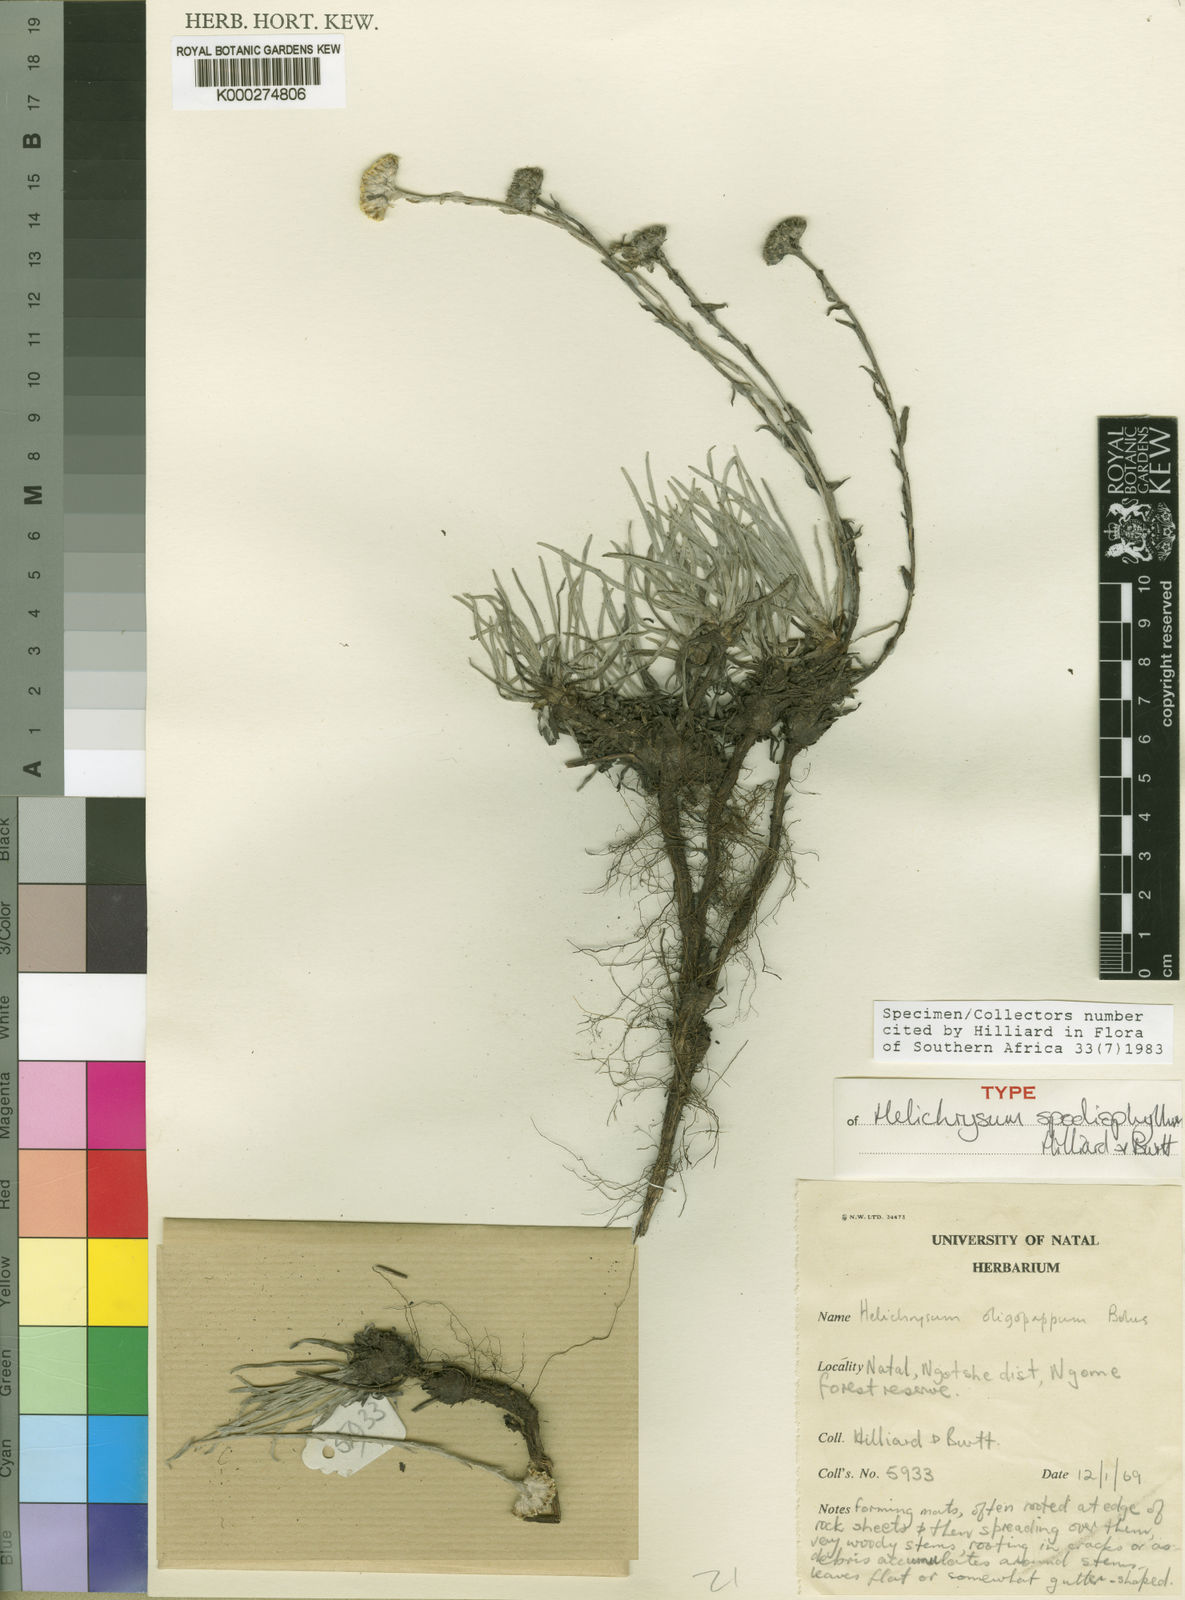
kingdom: Plantae
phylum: Tracheophyta
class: Magnoliopsida
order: Asterales
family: Asteraceae
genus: Helichrysum
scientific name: Helichrysum spodiophyllum
